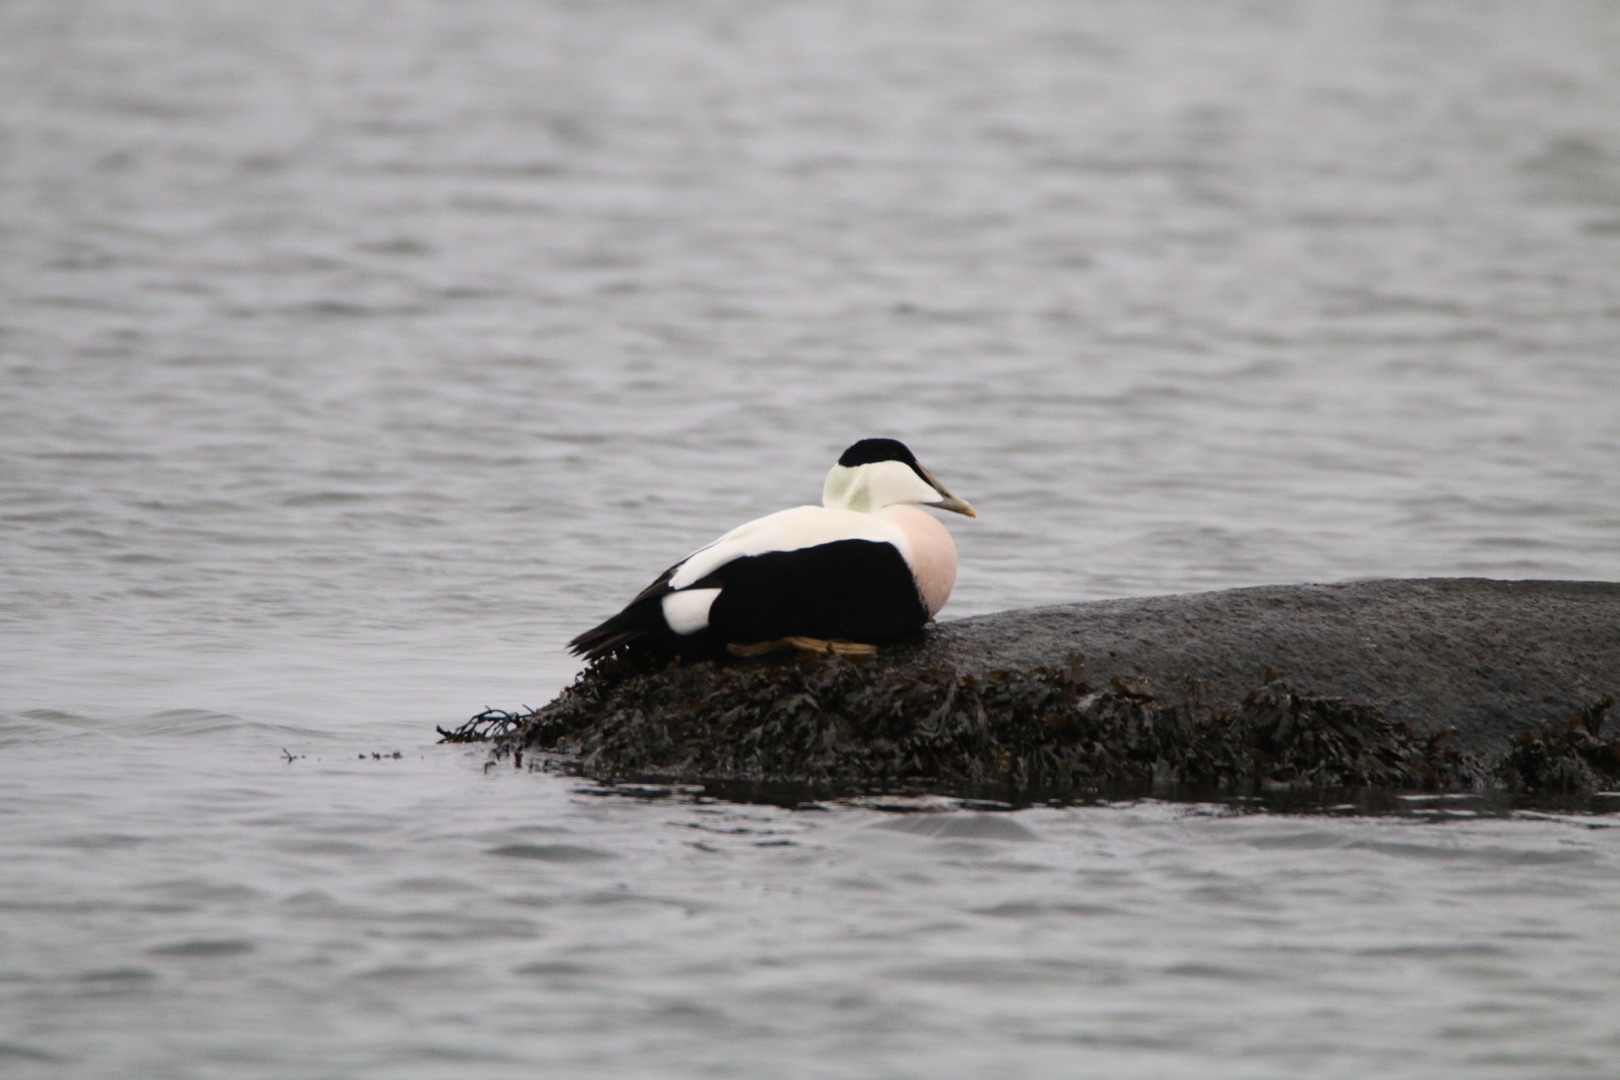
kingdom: Animalia
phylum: Chordata
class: Aves
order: Anseriformes
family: Anatidae
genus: Somateria
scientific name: Somateria mollissima
